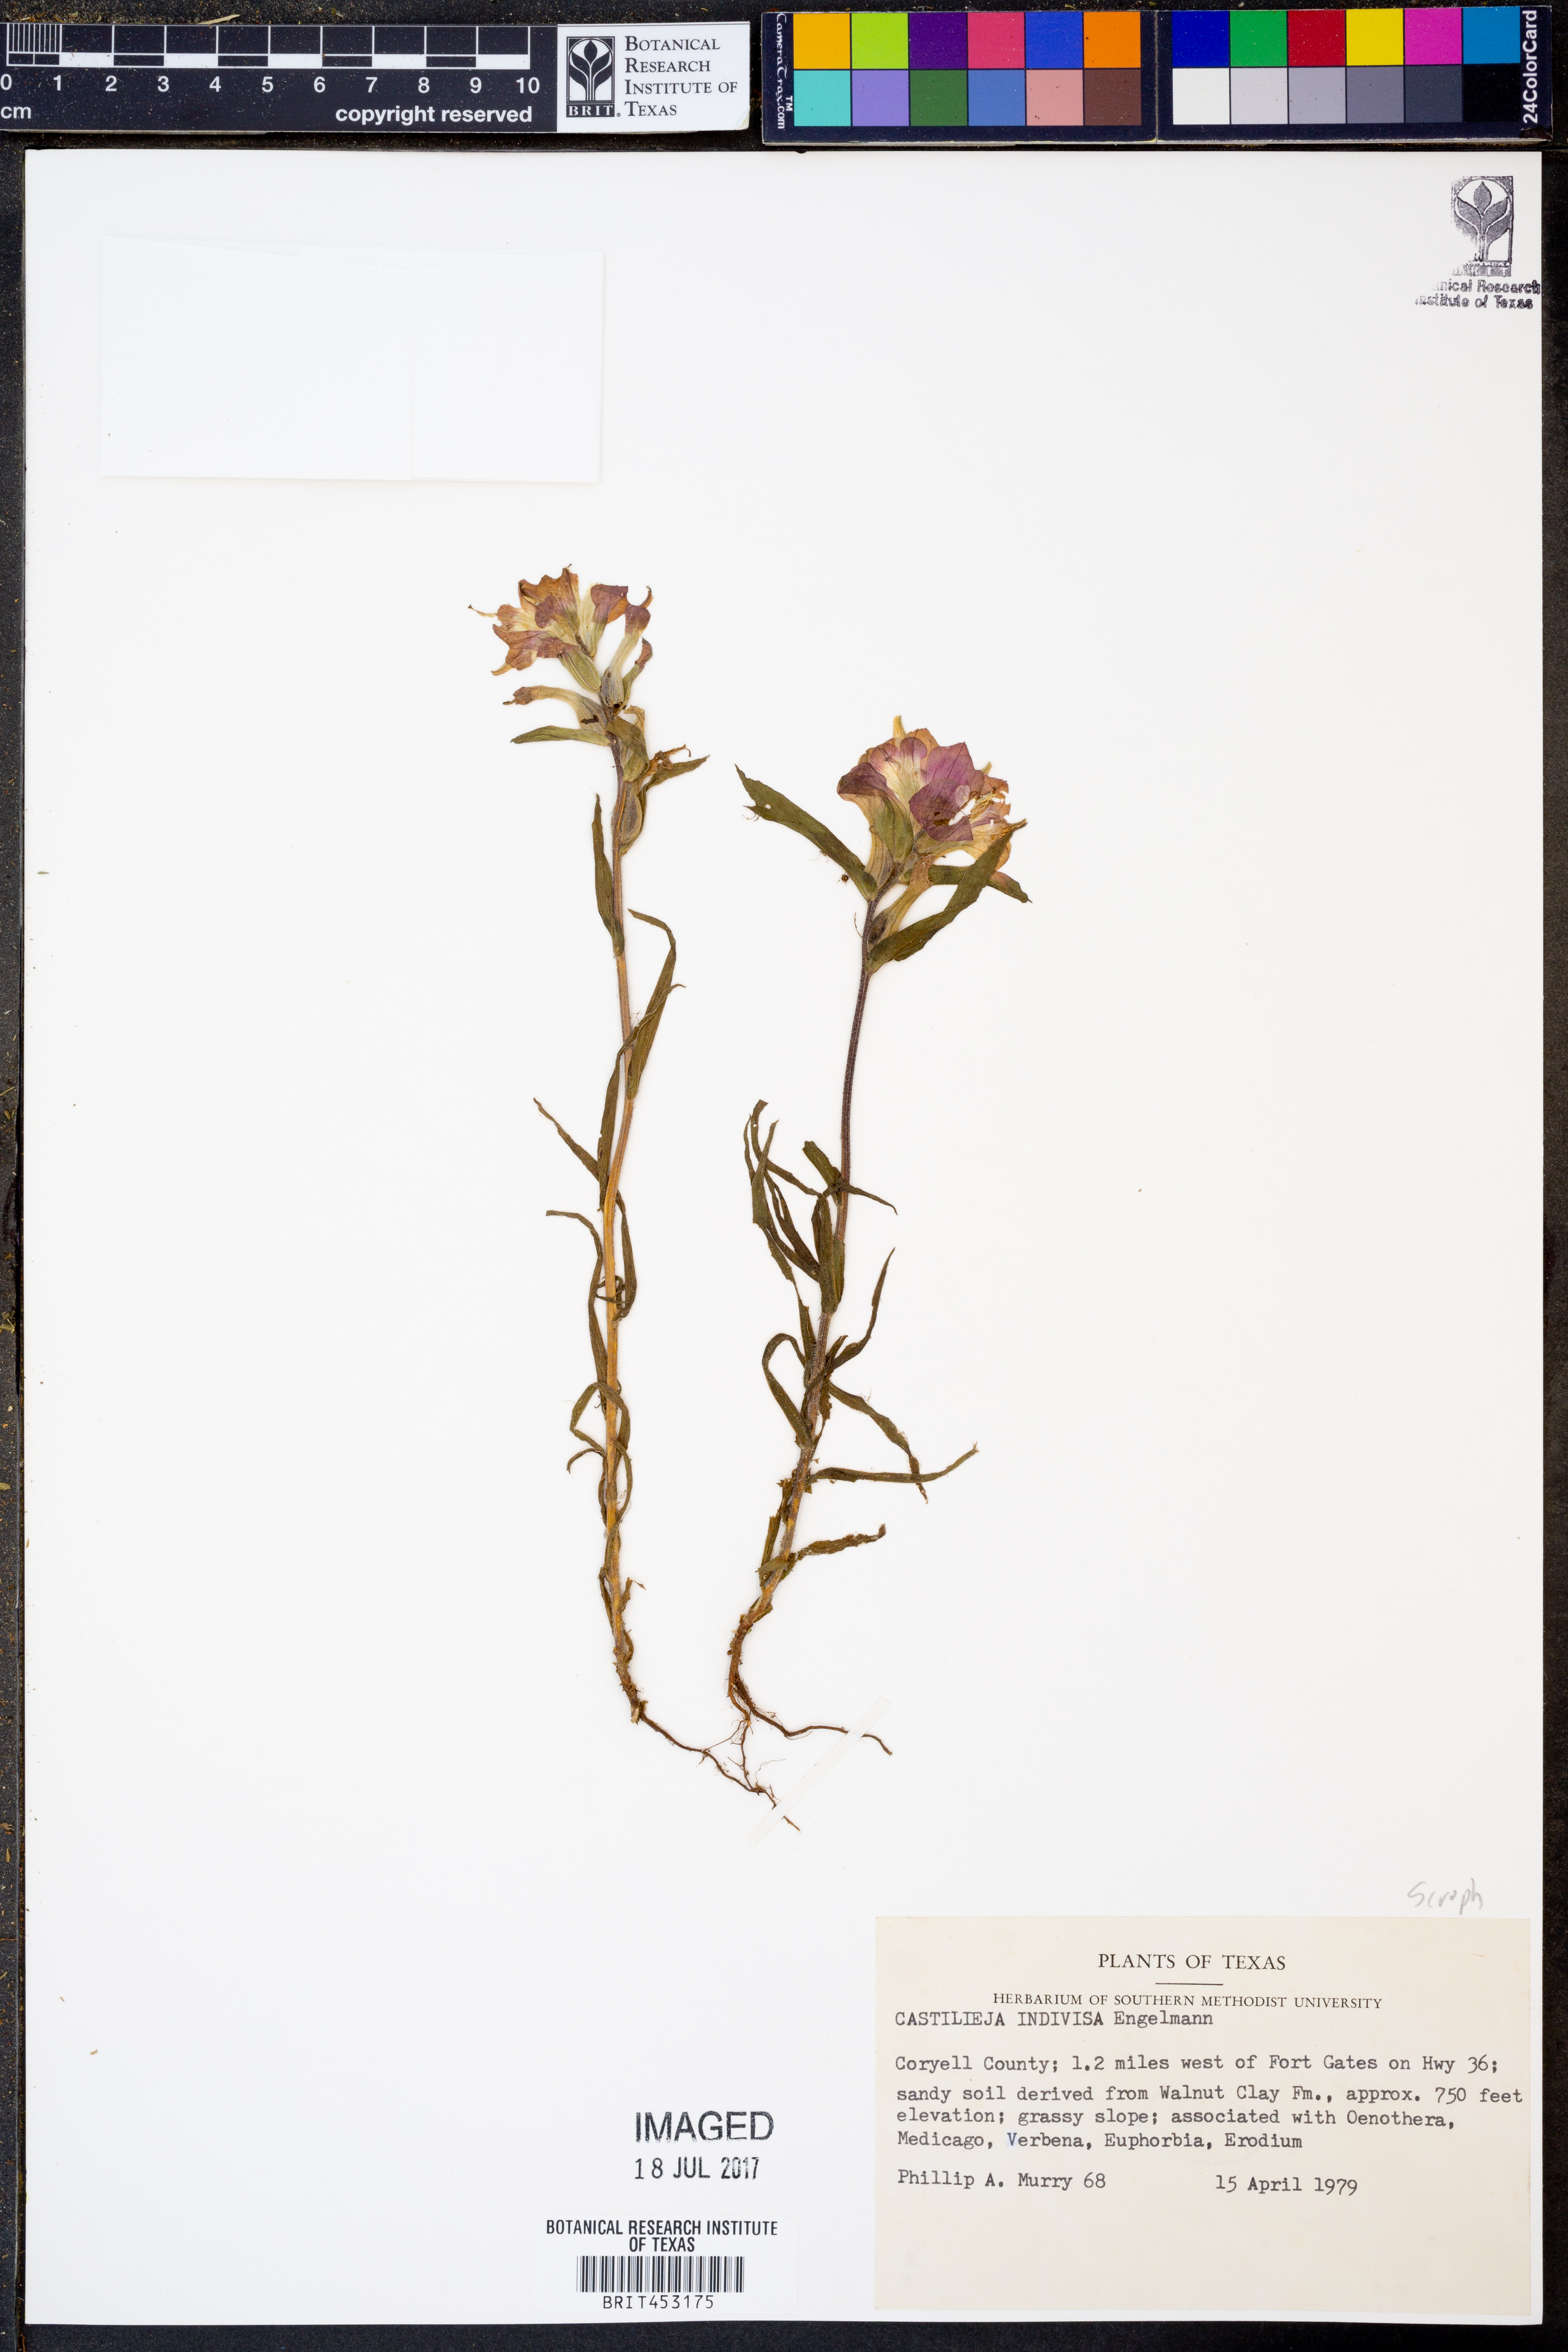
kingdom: Plantae
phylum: Tracheophyta
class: Magnoliopsida
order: Lamiales
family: Orobanchaceae
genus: Castilleja
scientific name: Castilleja indivisa
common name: Texas paintbrush
